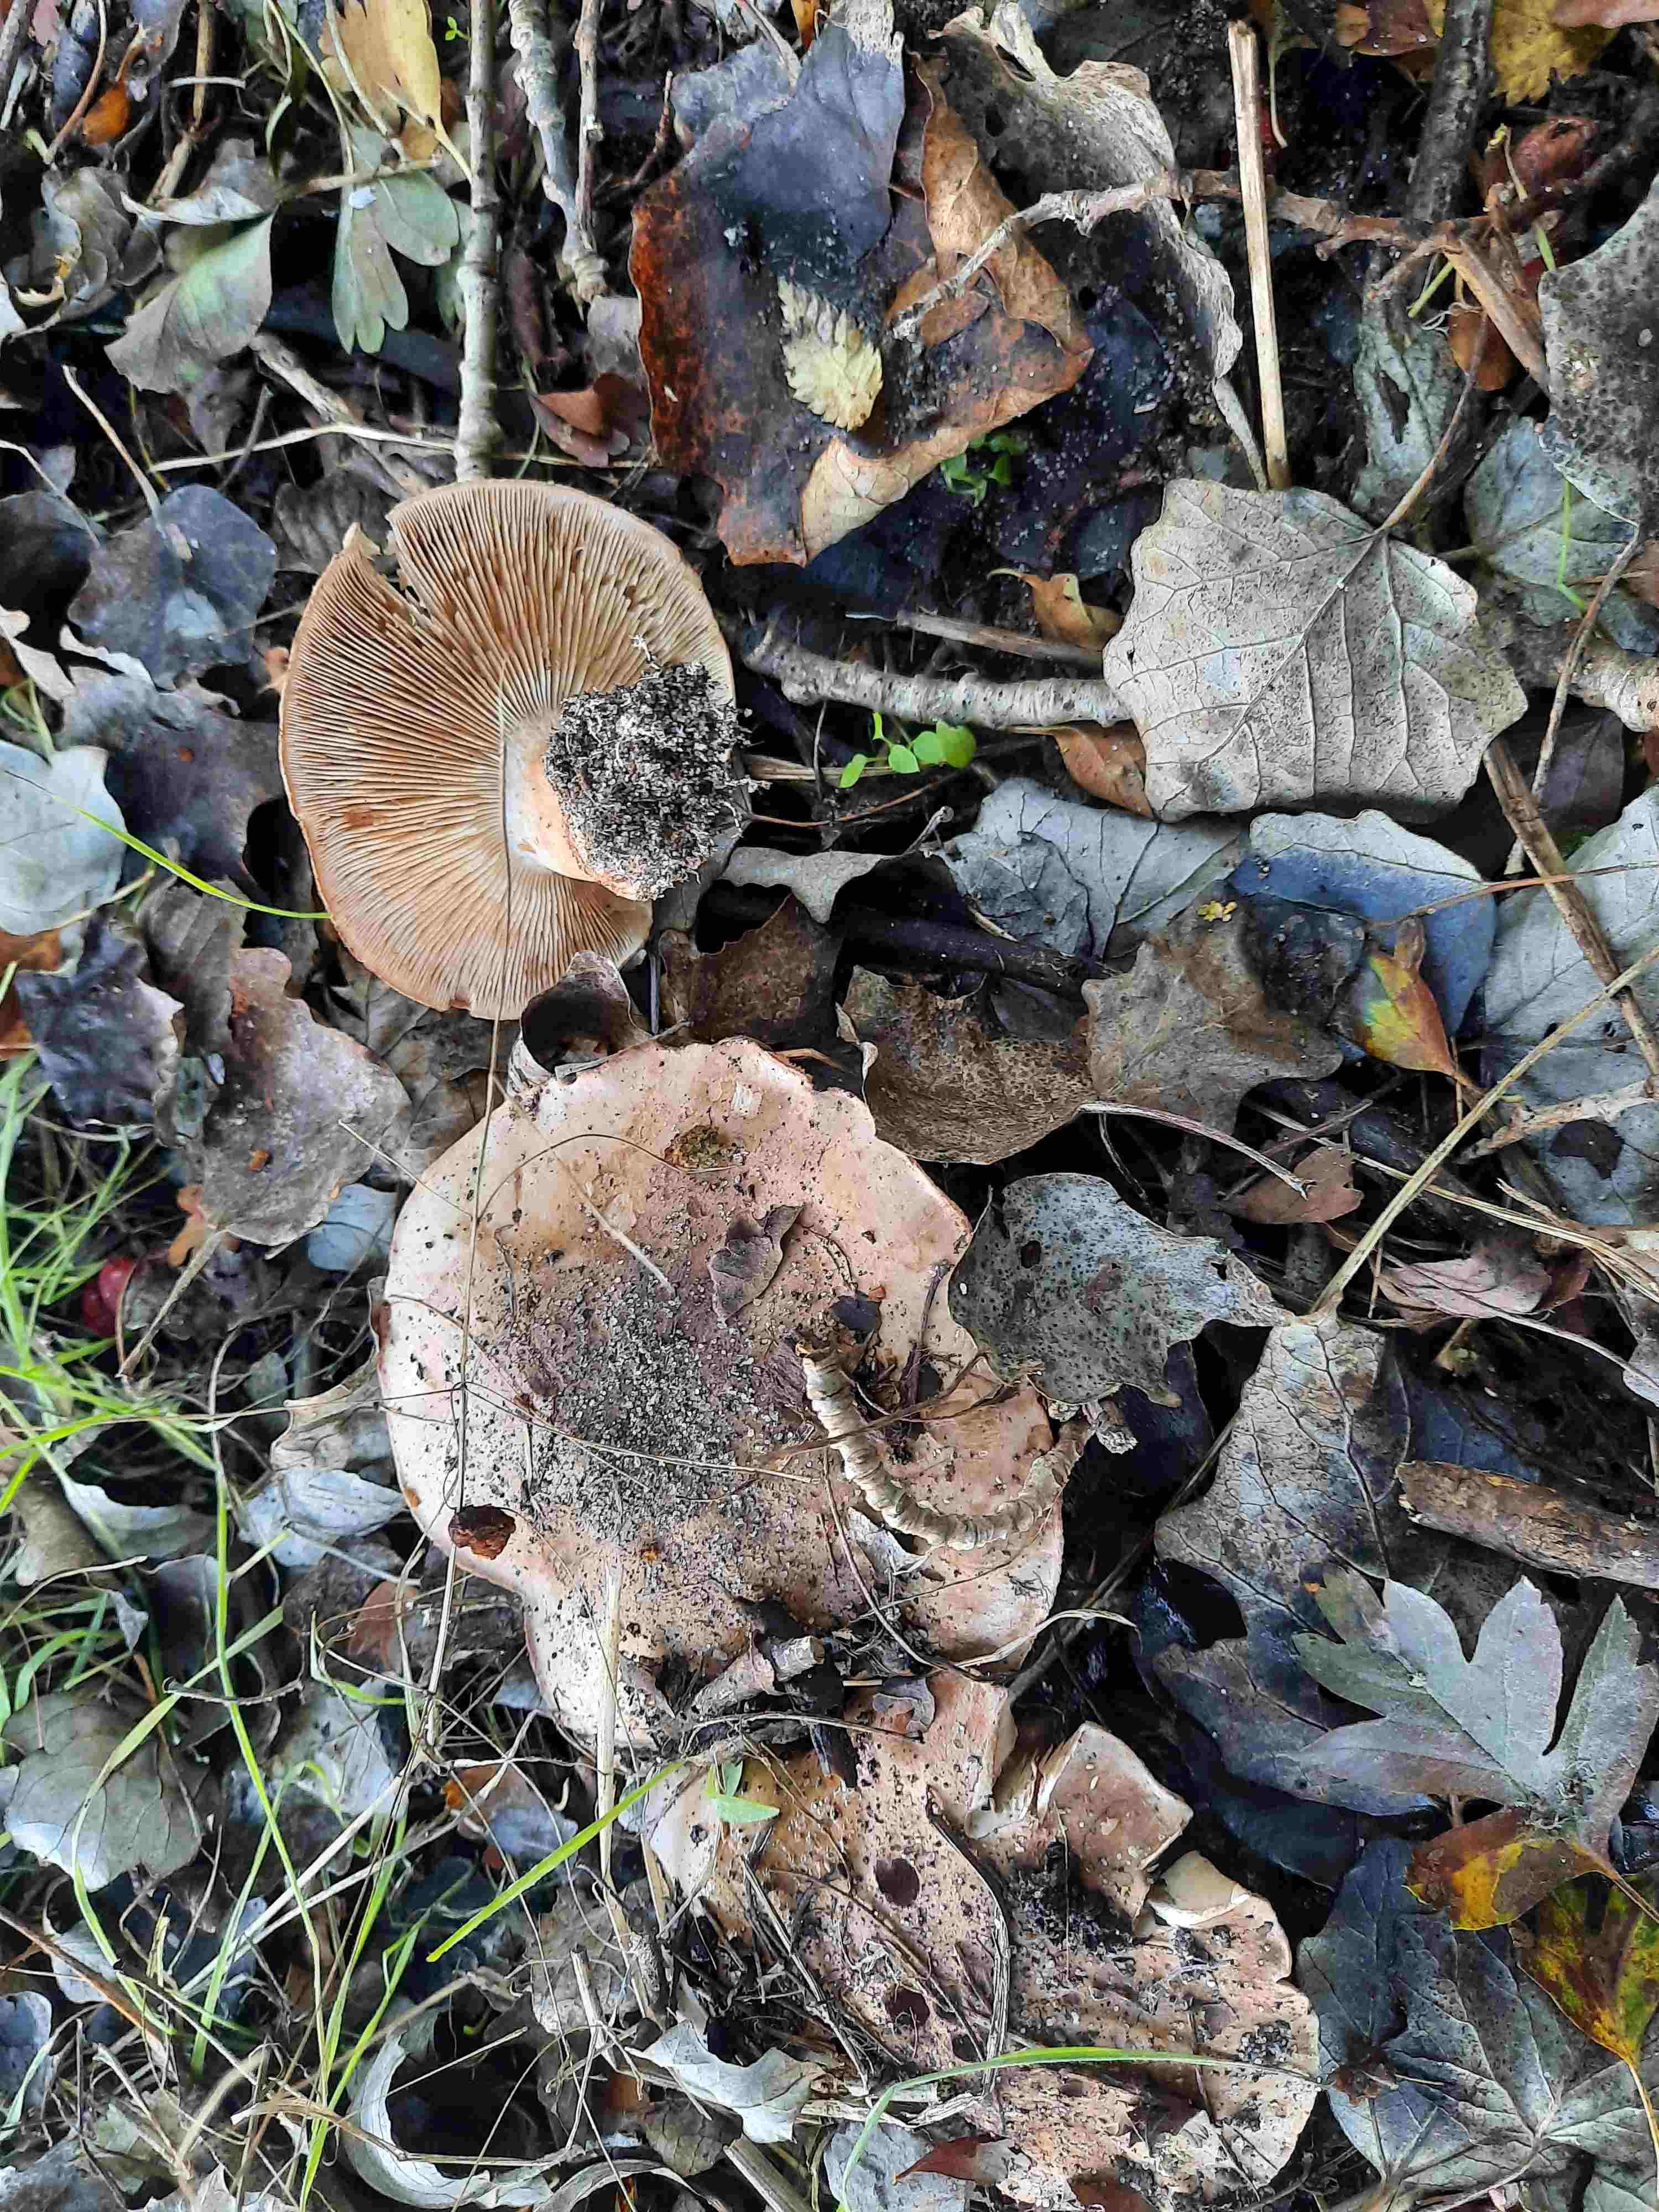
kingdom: Fungi
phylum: Basidiomycota
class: Agaricomycetes
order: Agaricales
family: Tricholomataceae
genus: Tricholoma
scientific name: Tricholoma populinum
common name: poppel-ridderhat
